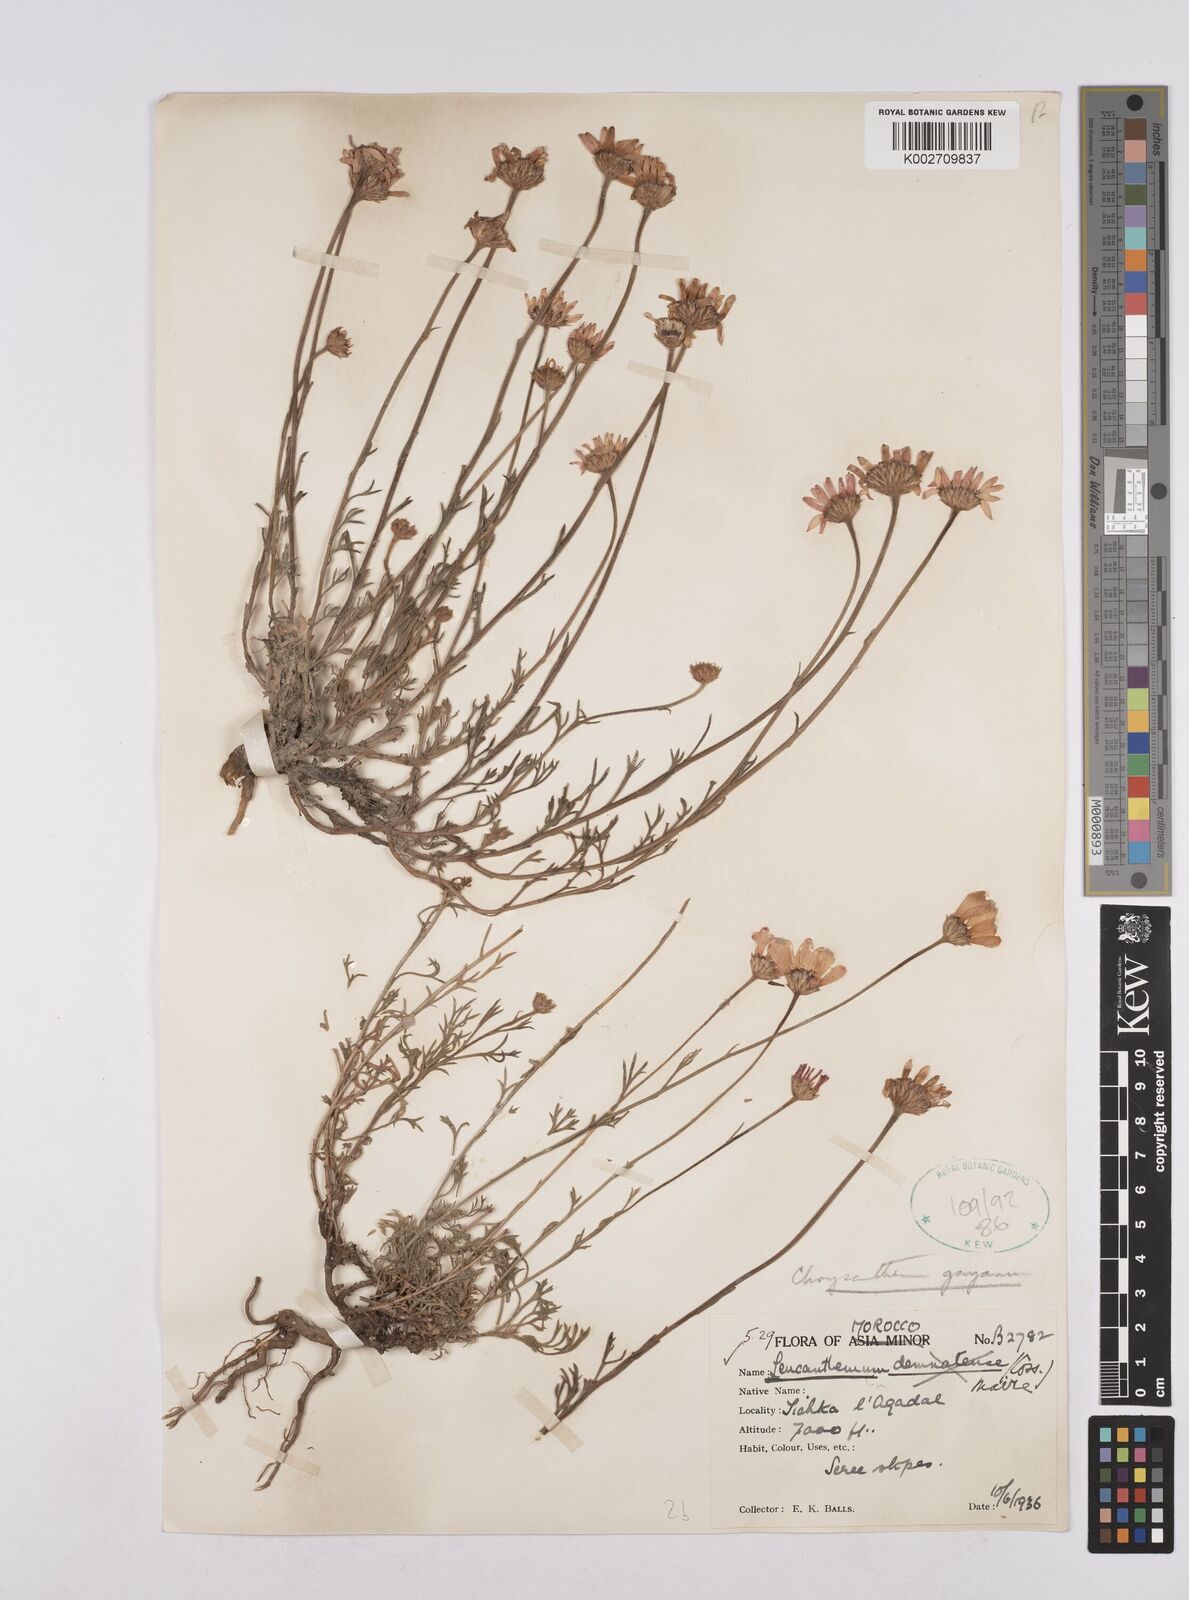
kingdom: Plantae
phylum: Tracheophyta
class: Magnoliopsida
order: Asterales
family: Asteraceae
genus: Rhodanthemum
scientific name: Rhodanthemum gayanum
